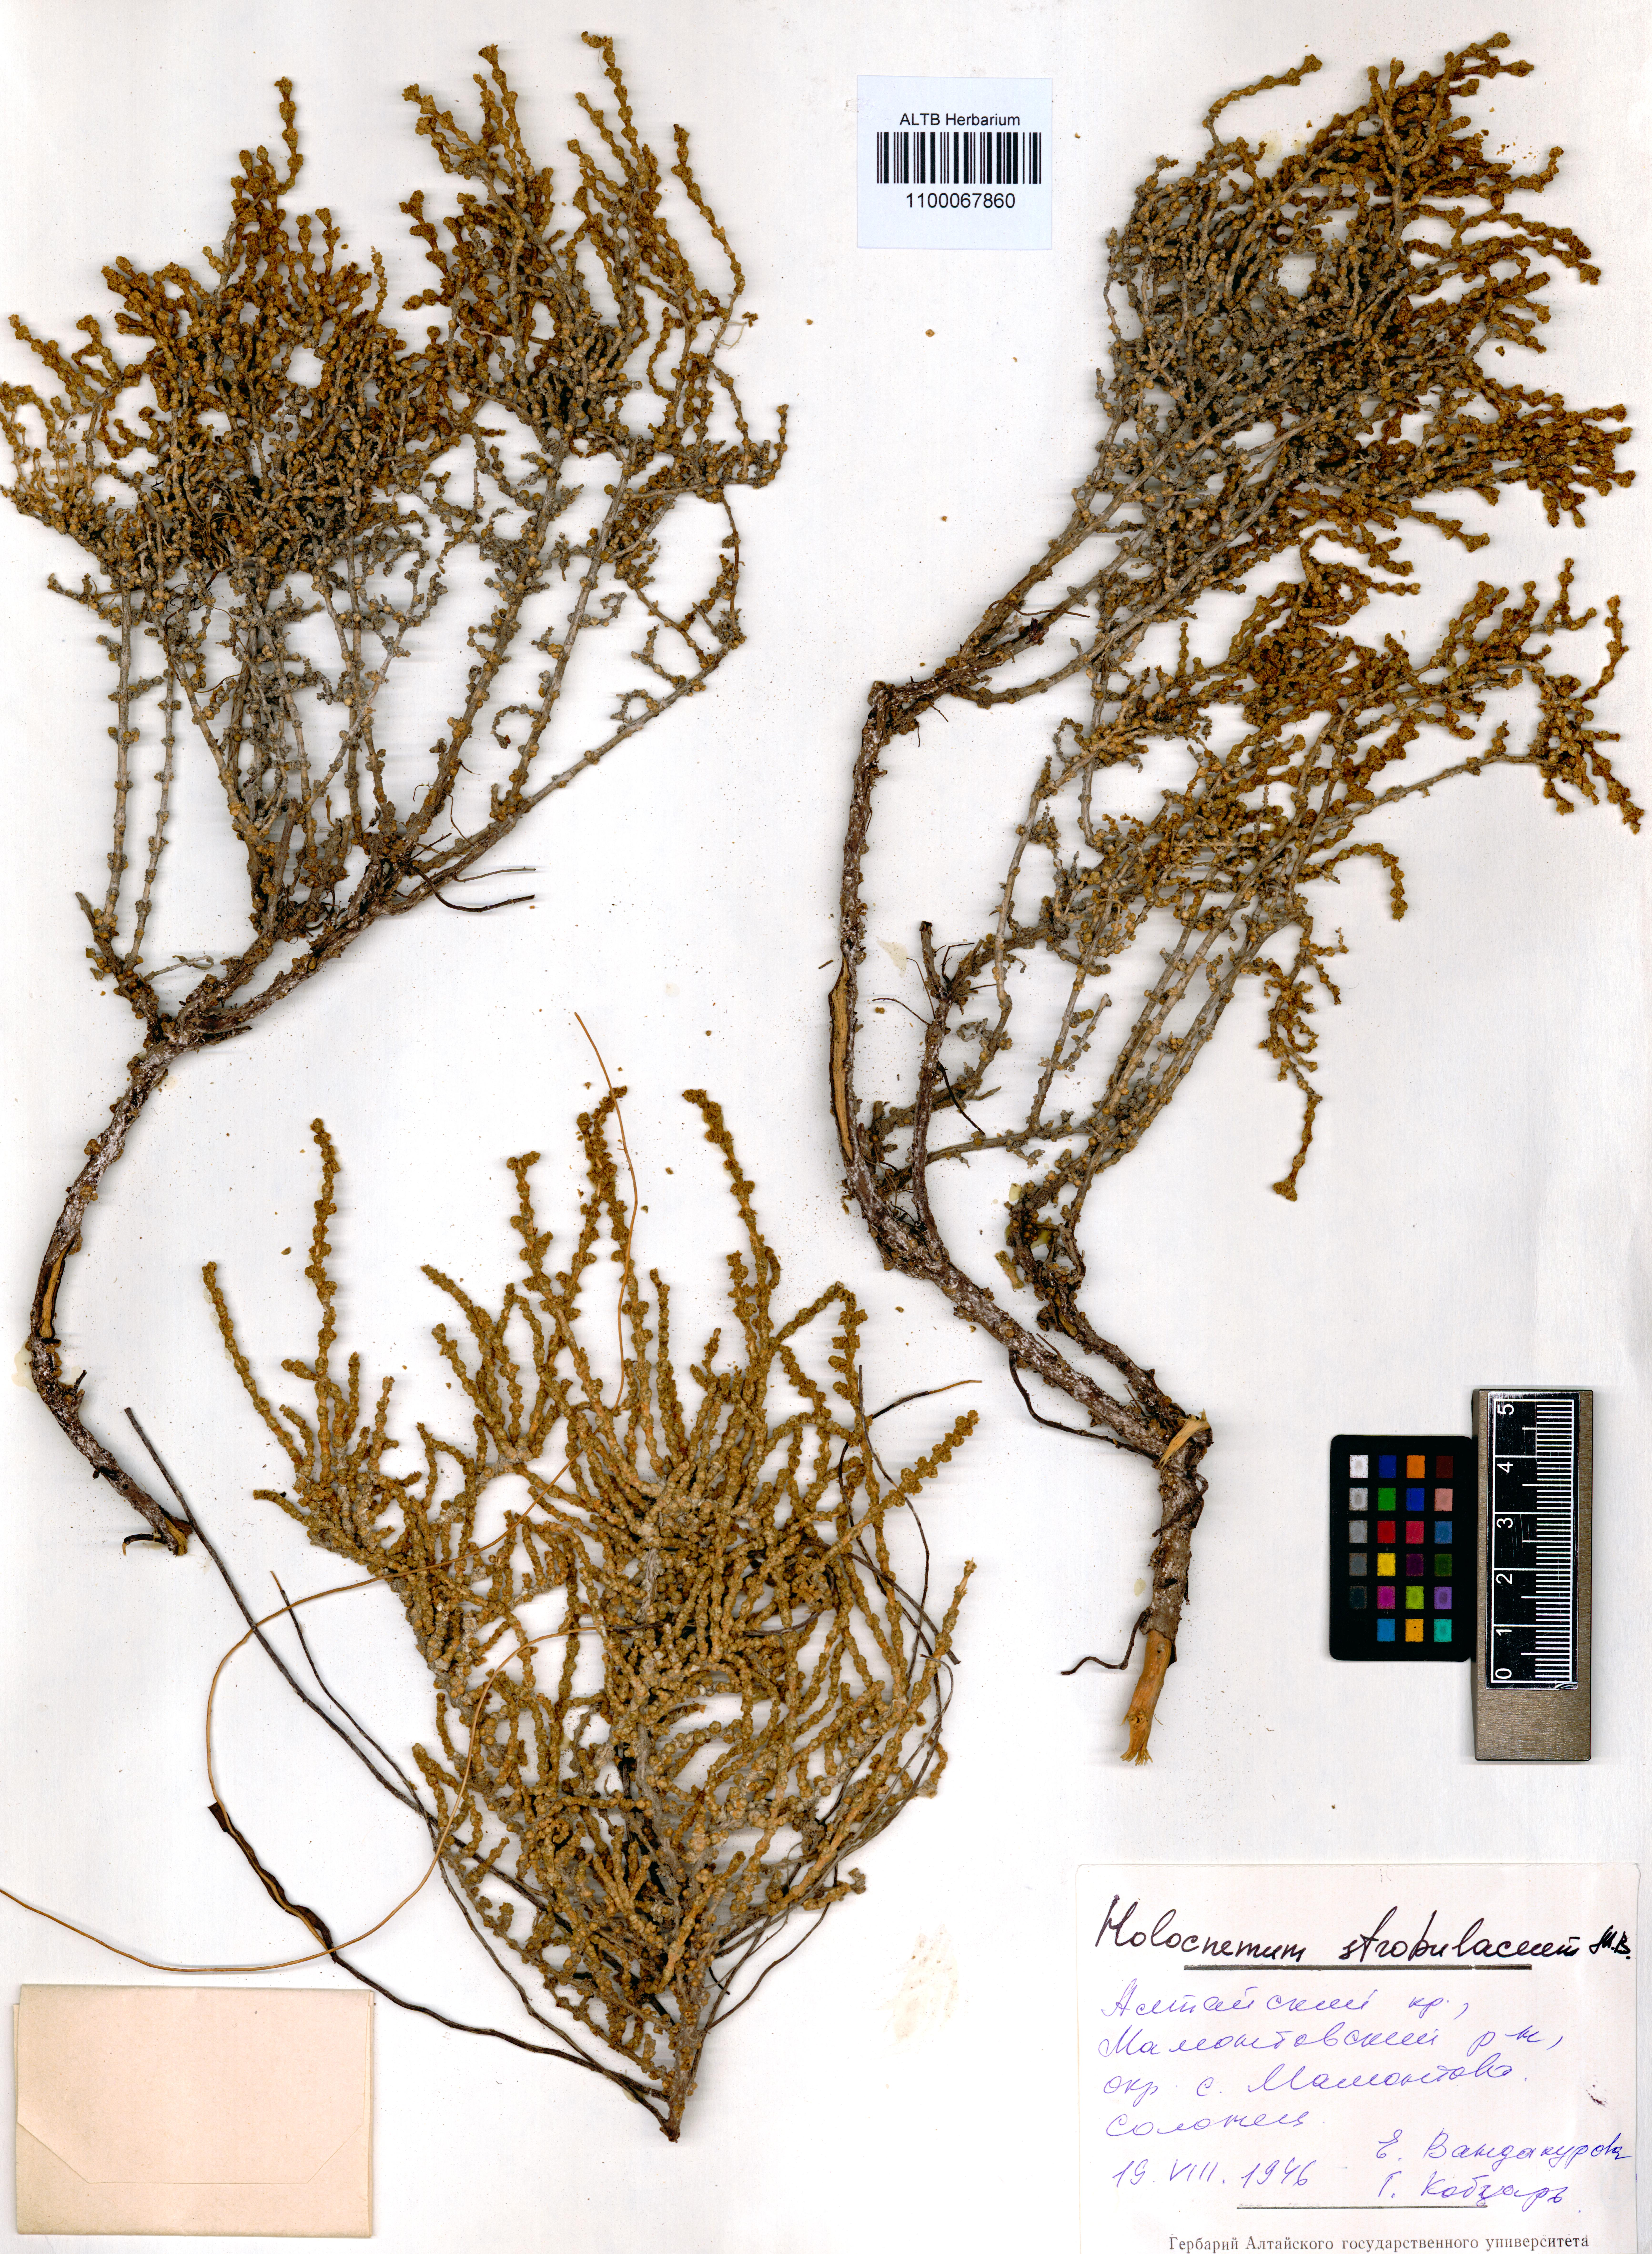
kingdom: Plantae
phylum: Tracheophyta
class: Magnoliopsida
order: Caryophyllales
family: Amaranthaceae
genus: Halocnemum
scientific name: Halocnemum strobilaceum
